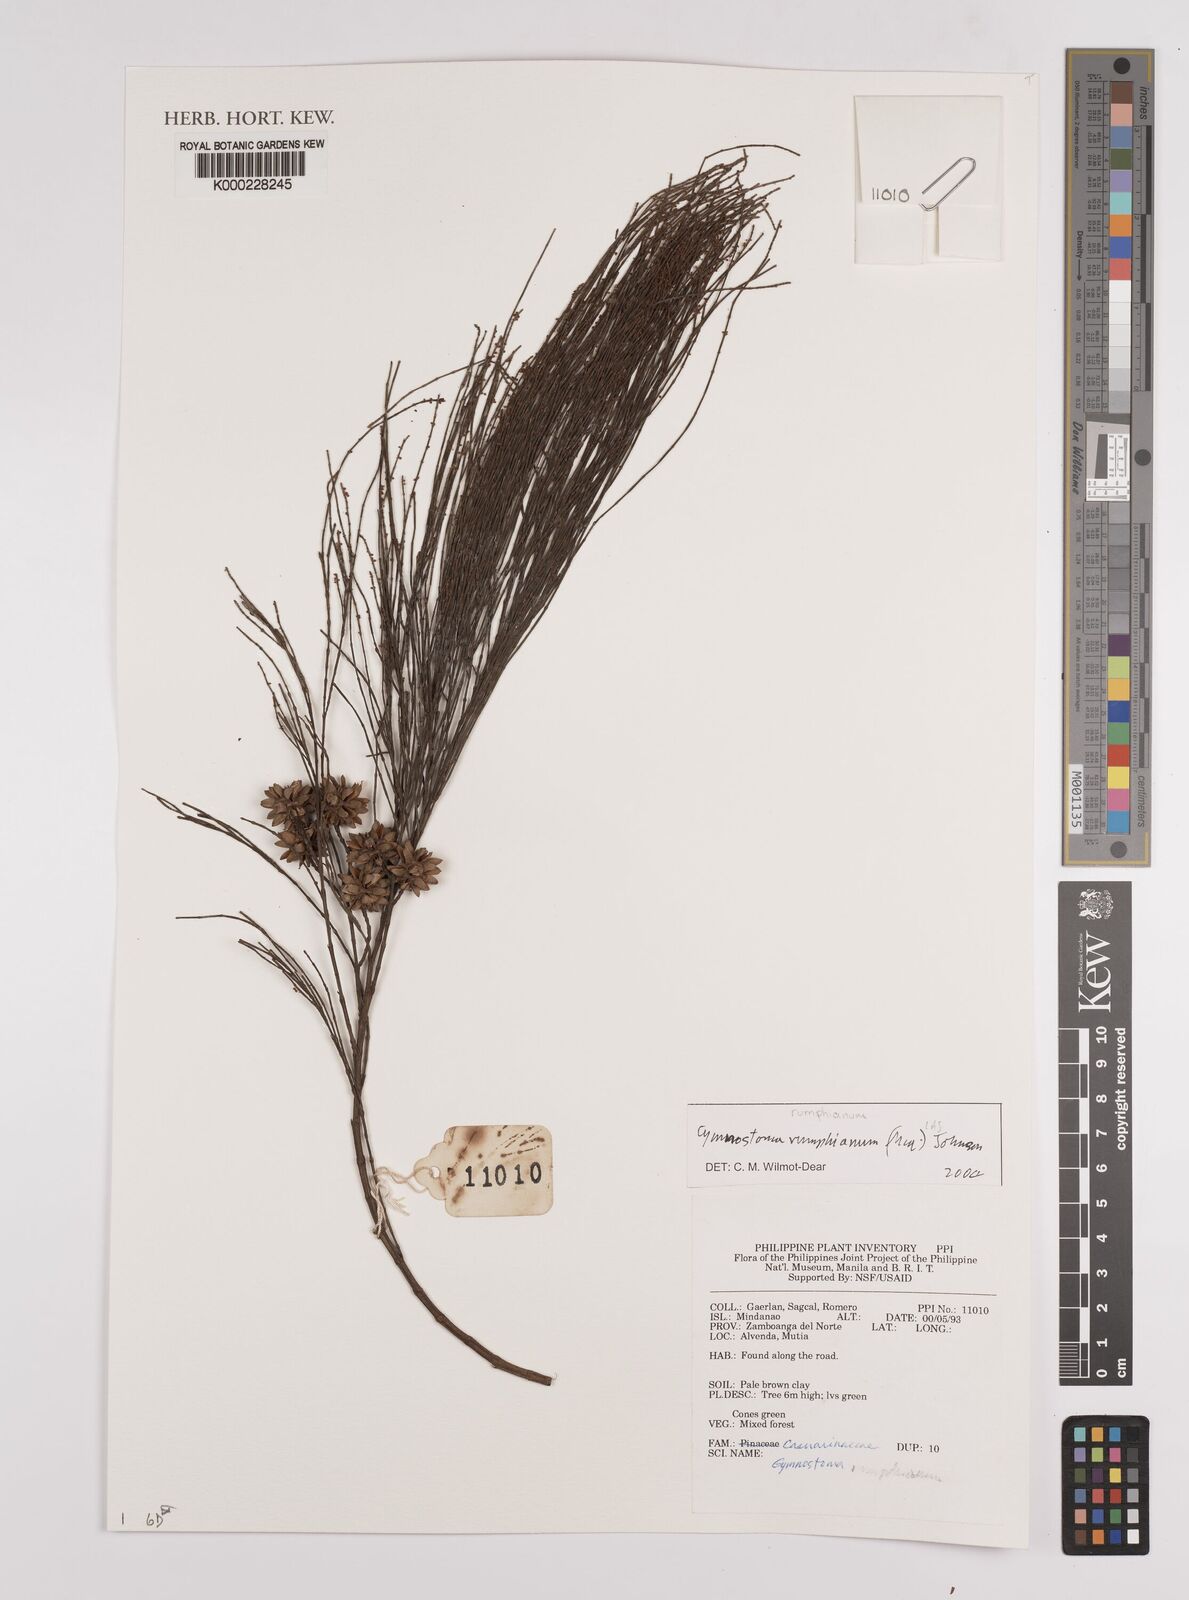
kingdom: Plantae
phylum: Tracheophyta
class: Magnoliopsida
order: Fagales
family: Casuarinaceae
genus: Gymnostoma
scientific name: Gymnostoma rumphianum
